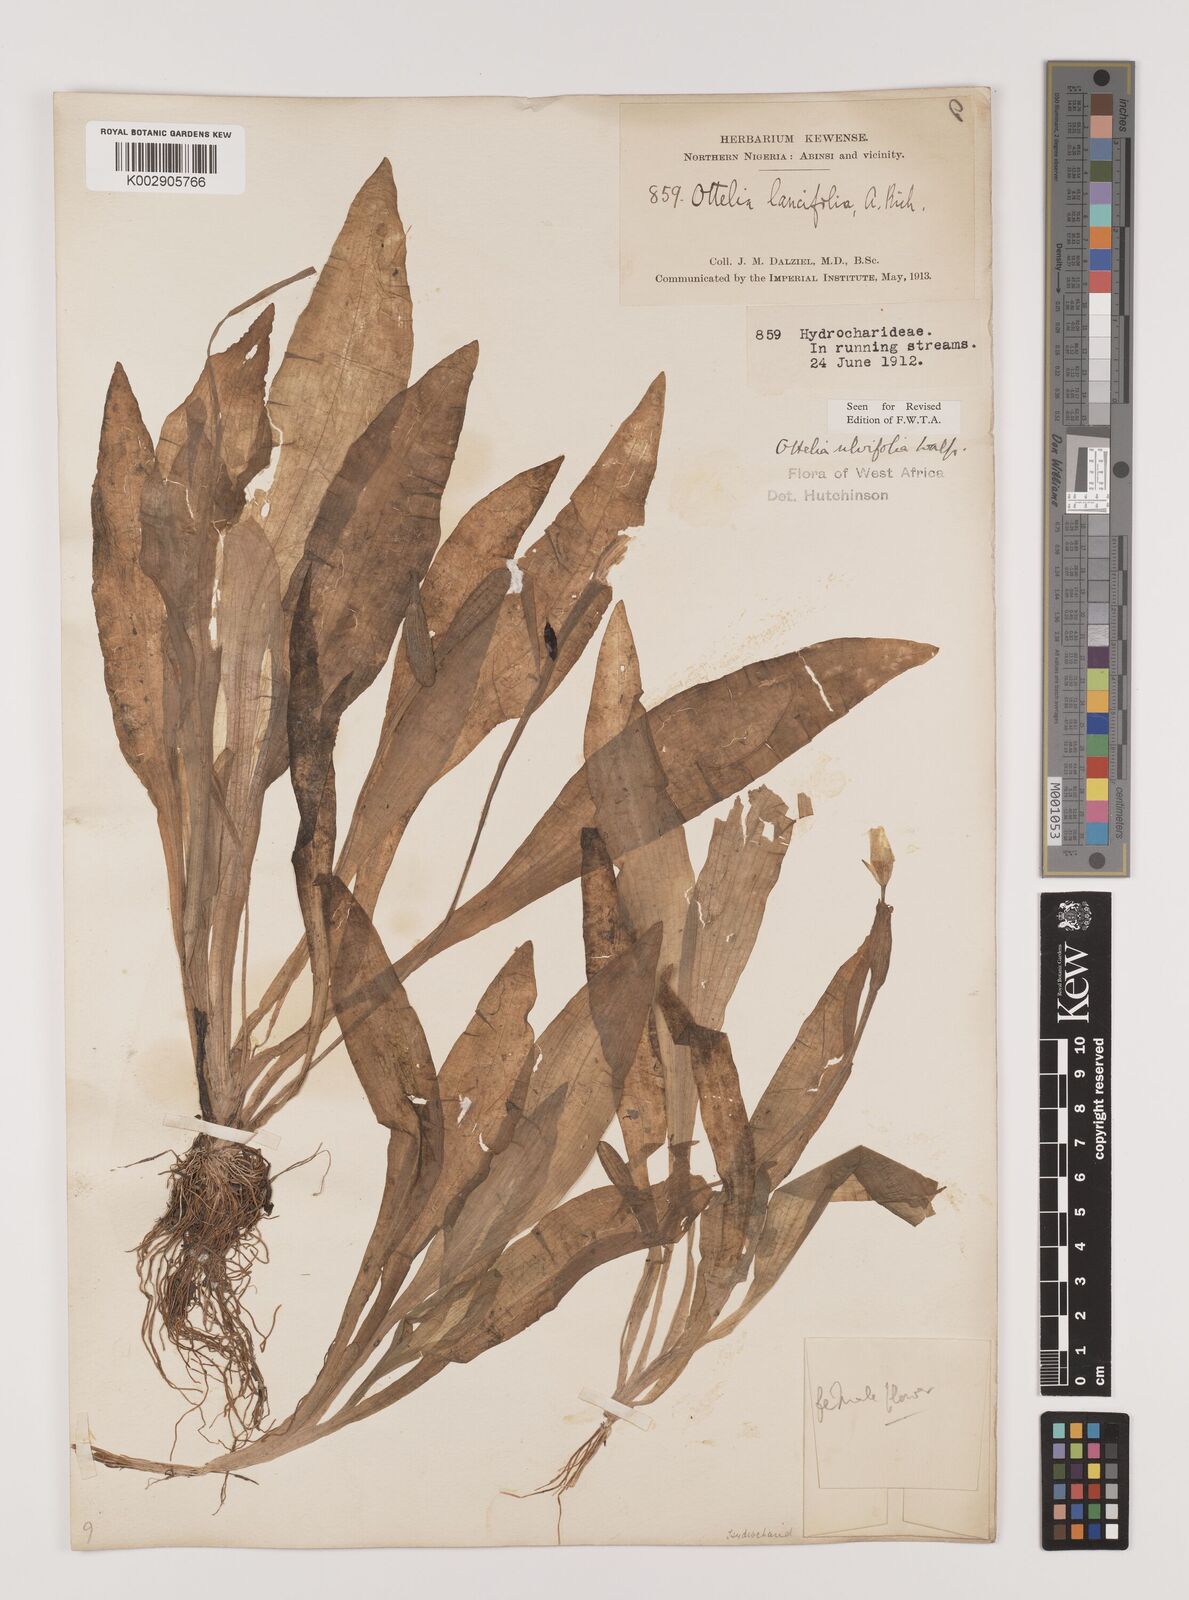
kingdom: Plantae
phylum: Tracheophyta
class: Liliopsida
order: Alismatales
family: Hydrocharitaceae
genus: Ottelia
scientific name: Ottelia ulvifolia
